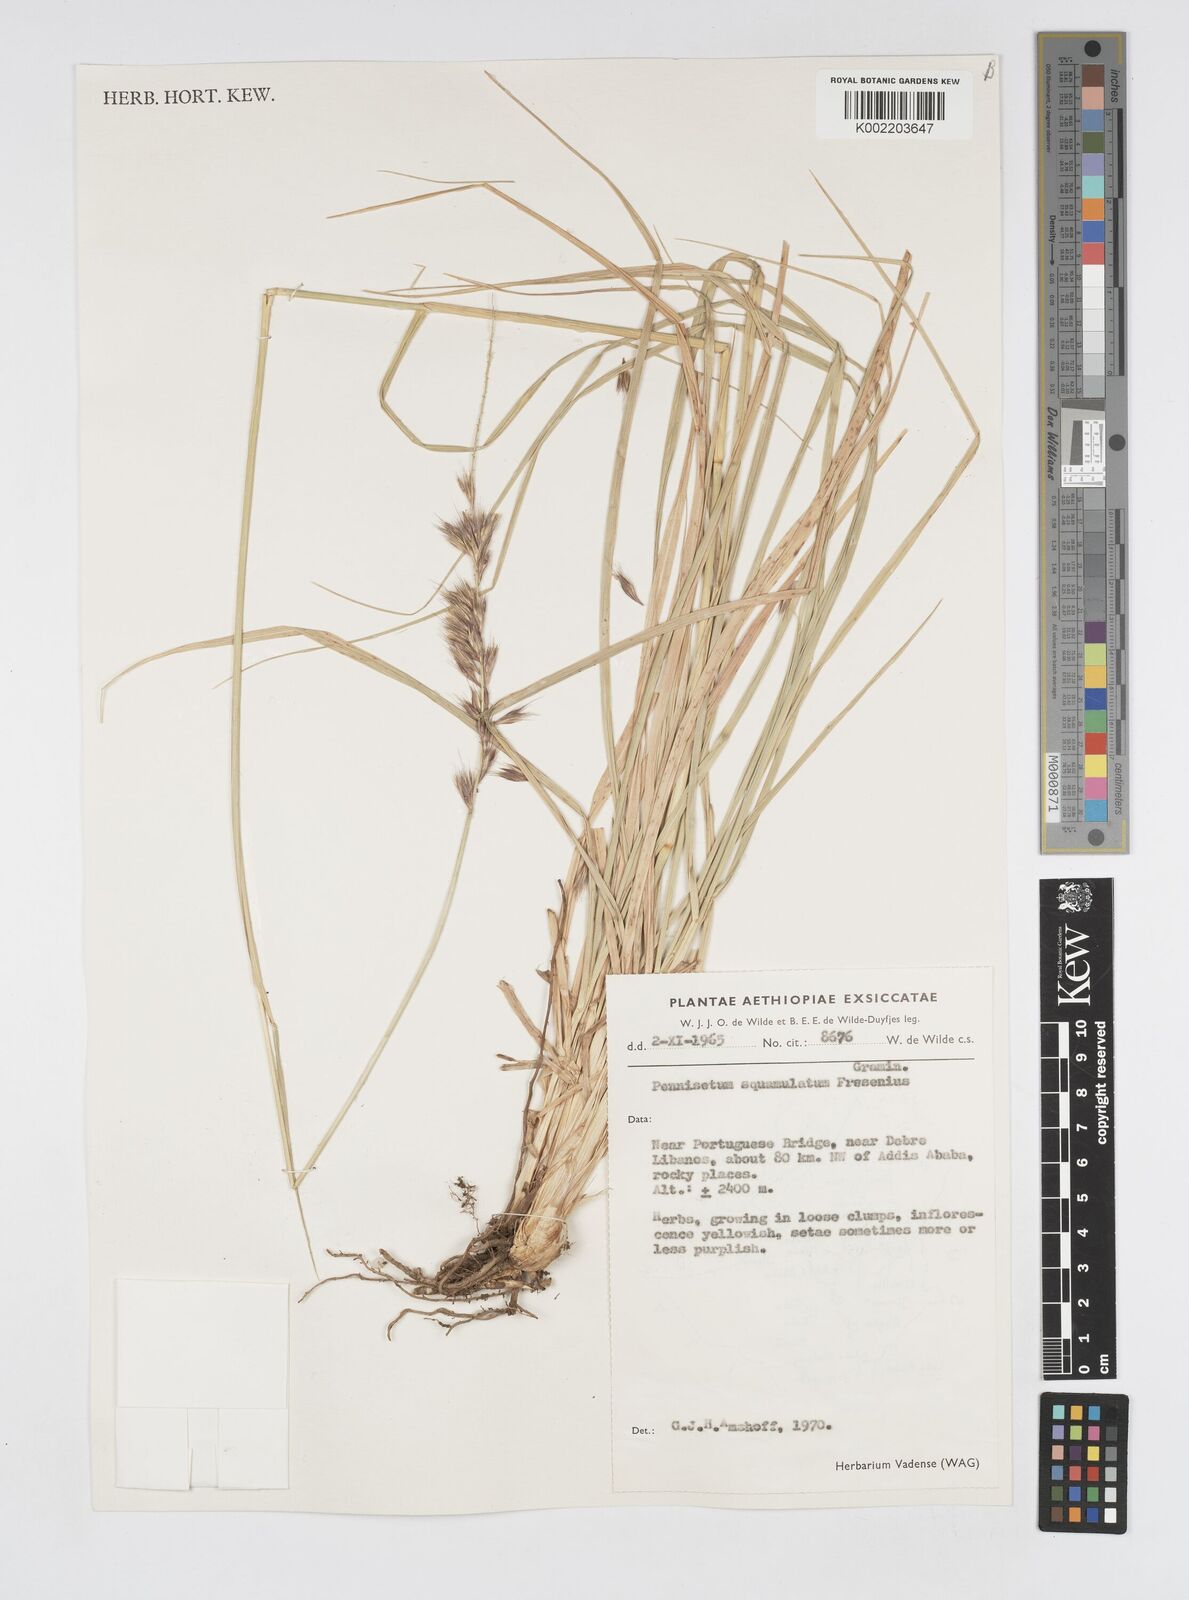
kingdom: Plantae
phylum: Tracheophyta
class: Liliopsida
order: Poales
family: Poaceae
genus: Cenchrus
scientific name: Cenchrus squamulatus
